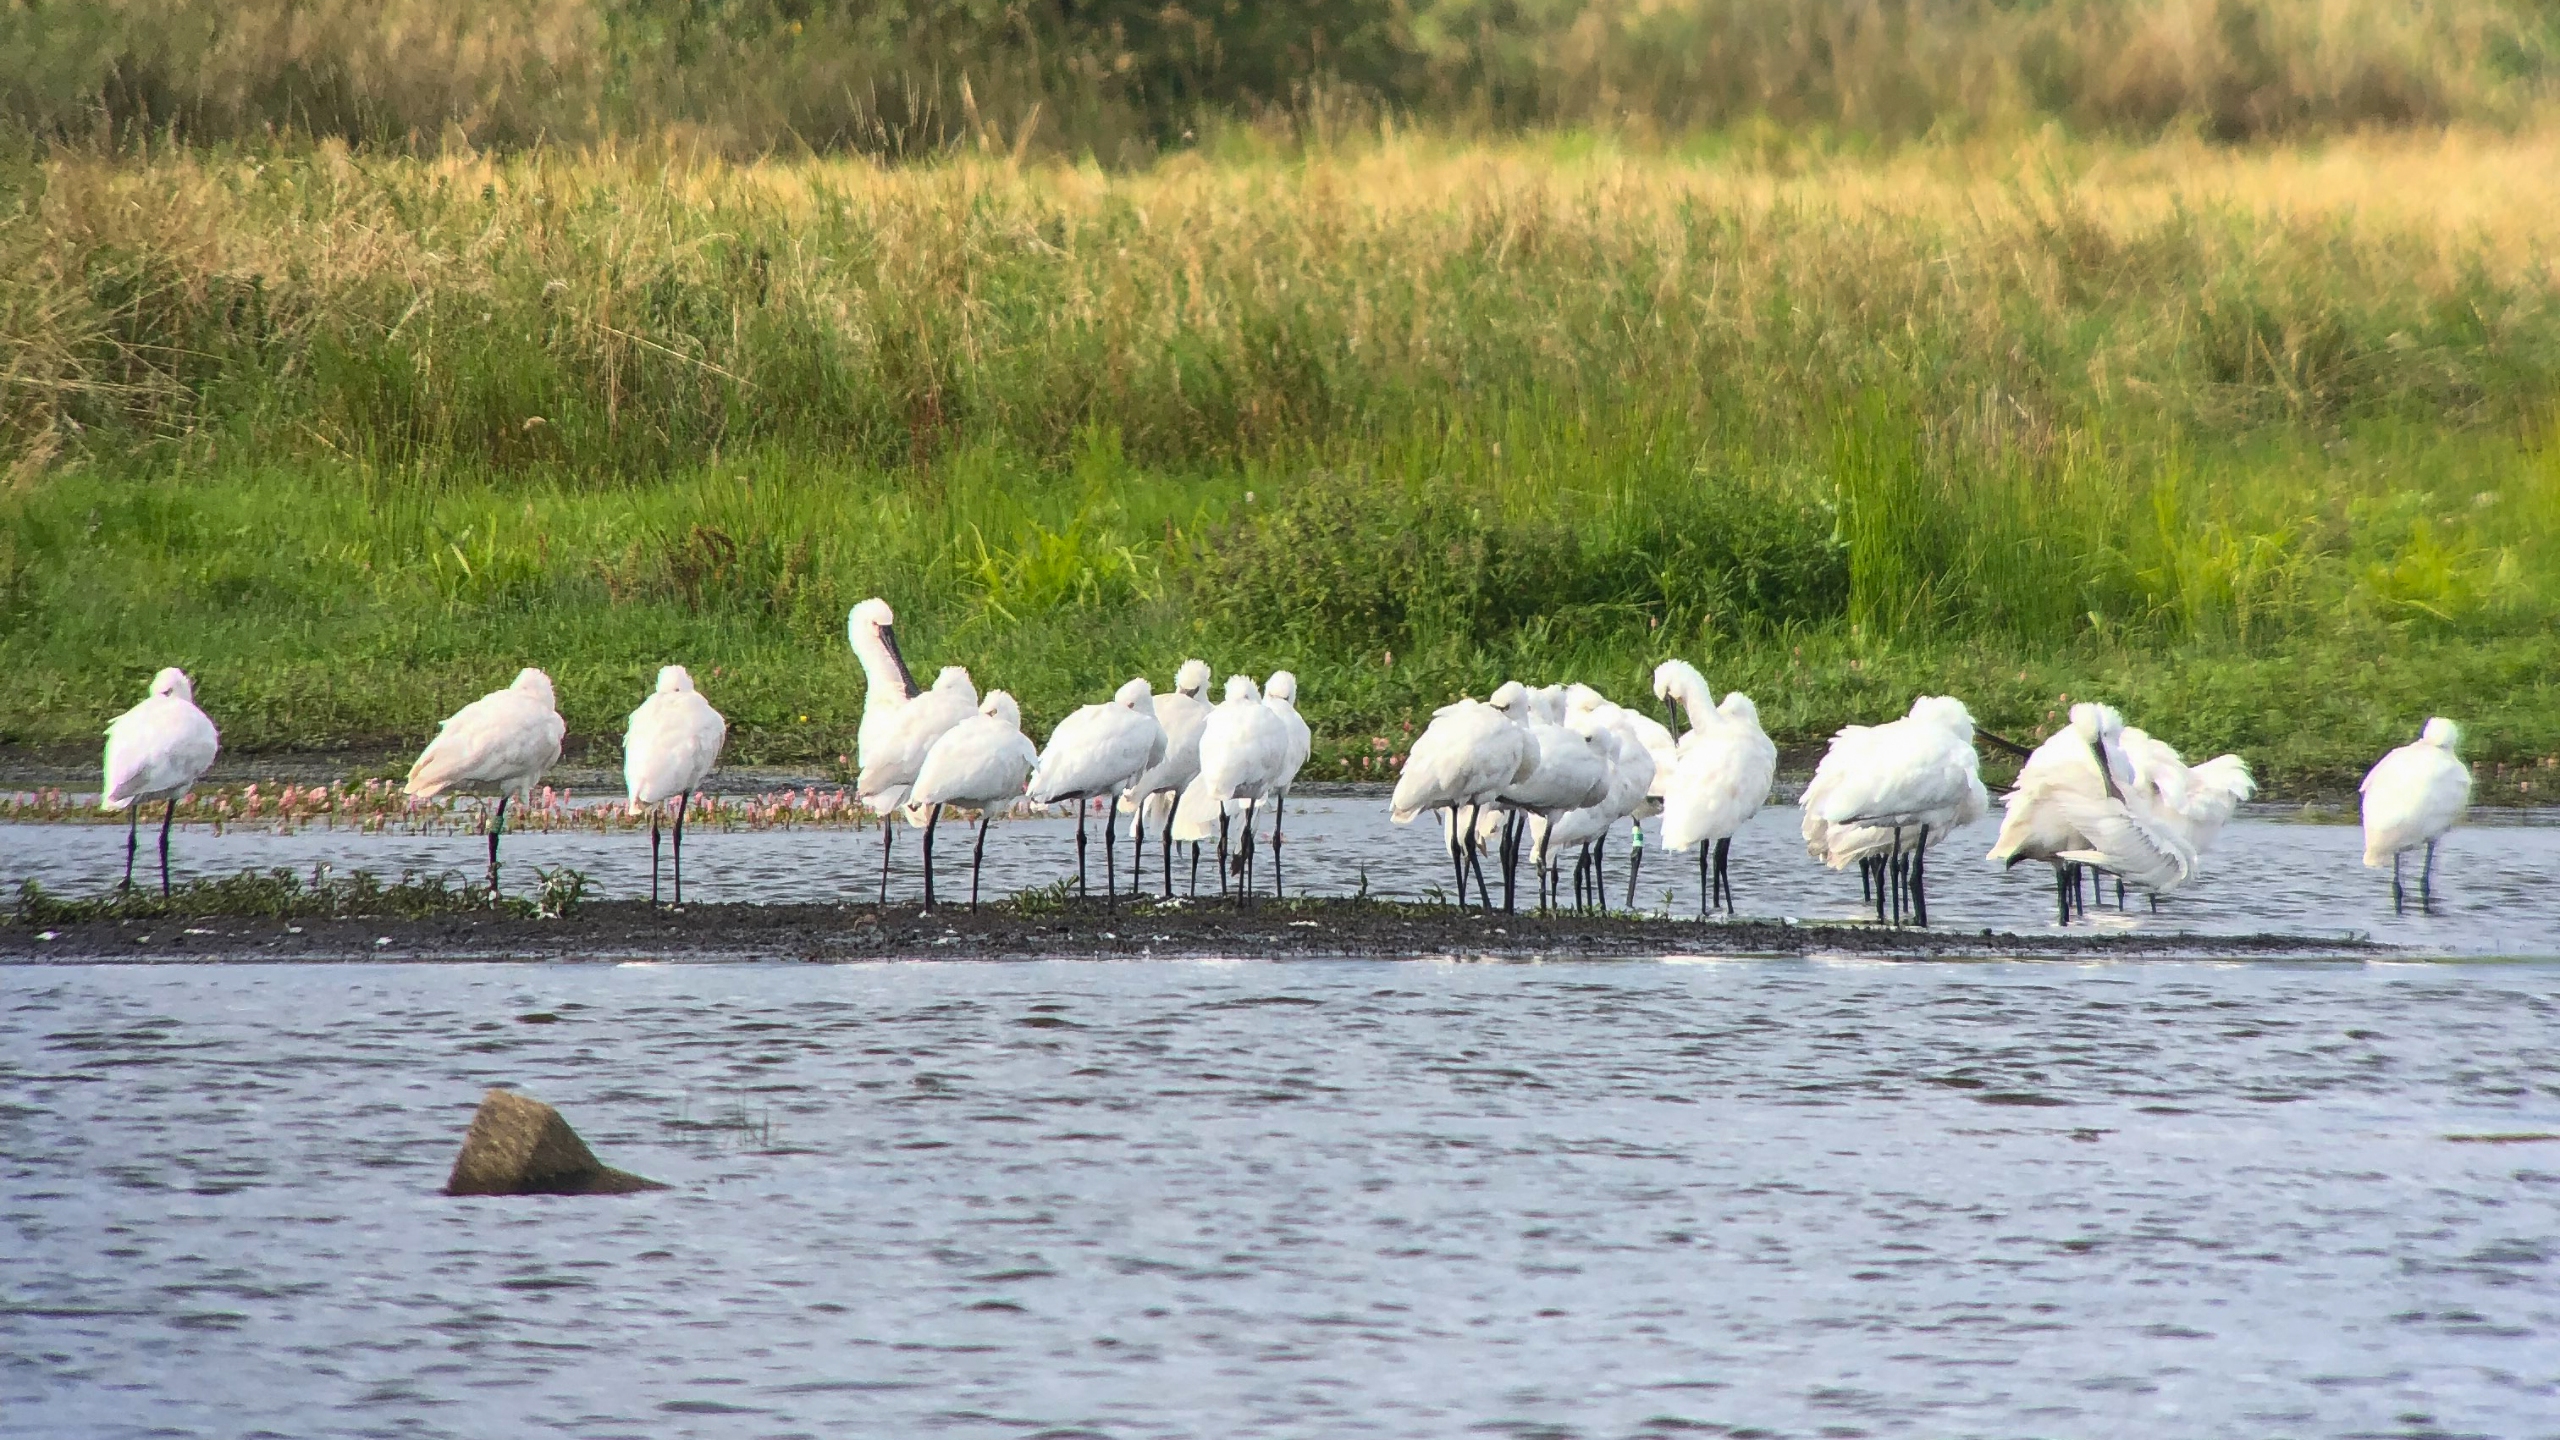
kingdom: Animalia
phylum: Chordata
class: Aves
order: Pelecaniformes
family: Threskiornithidae
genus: Platalea
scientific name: Platalea leucorodia
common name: Skestork
